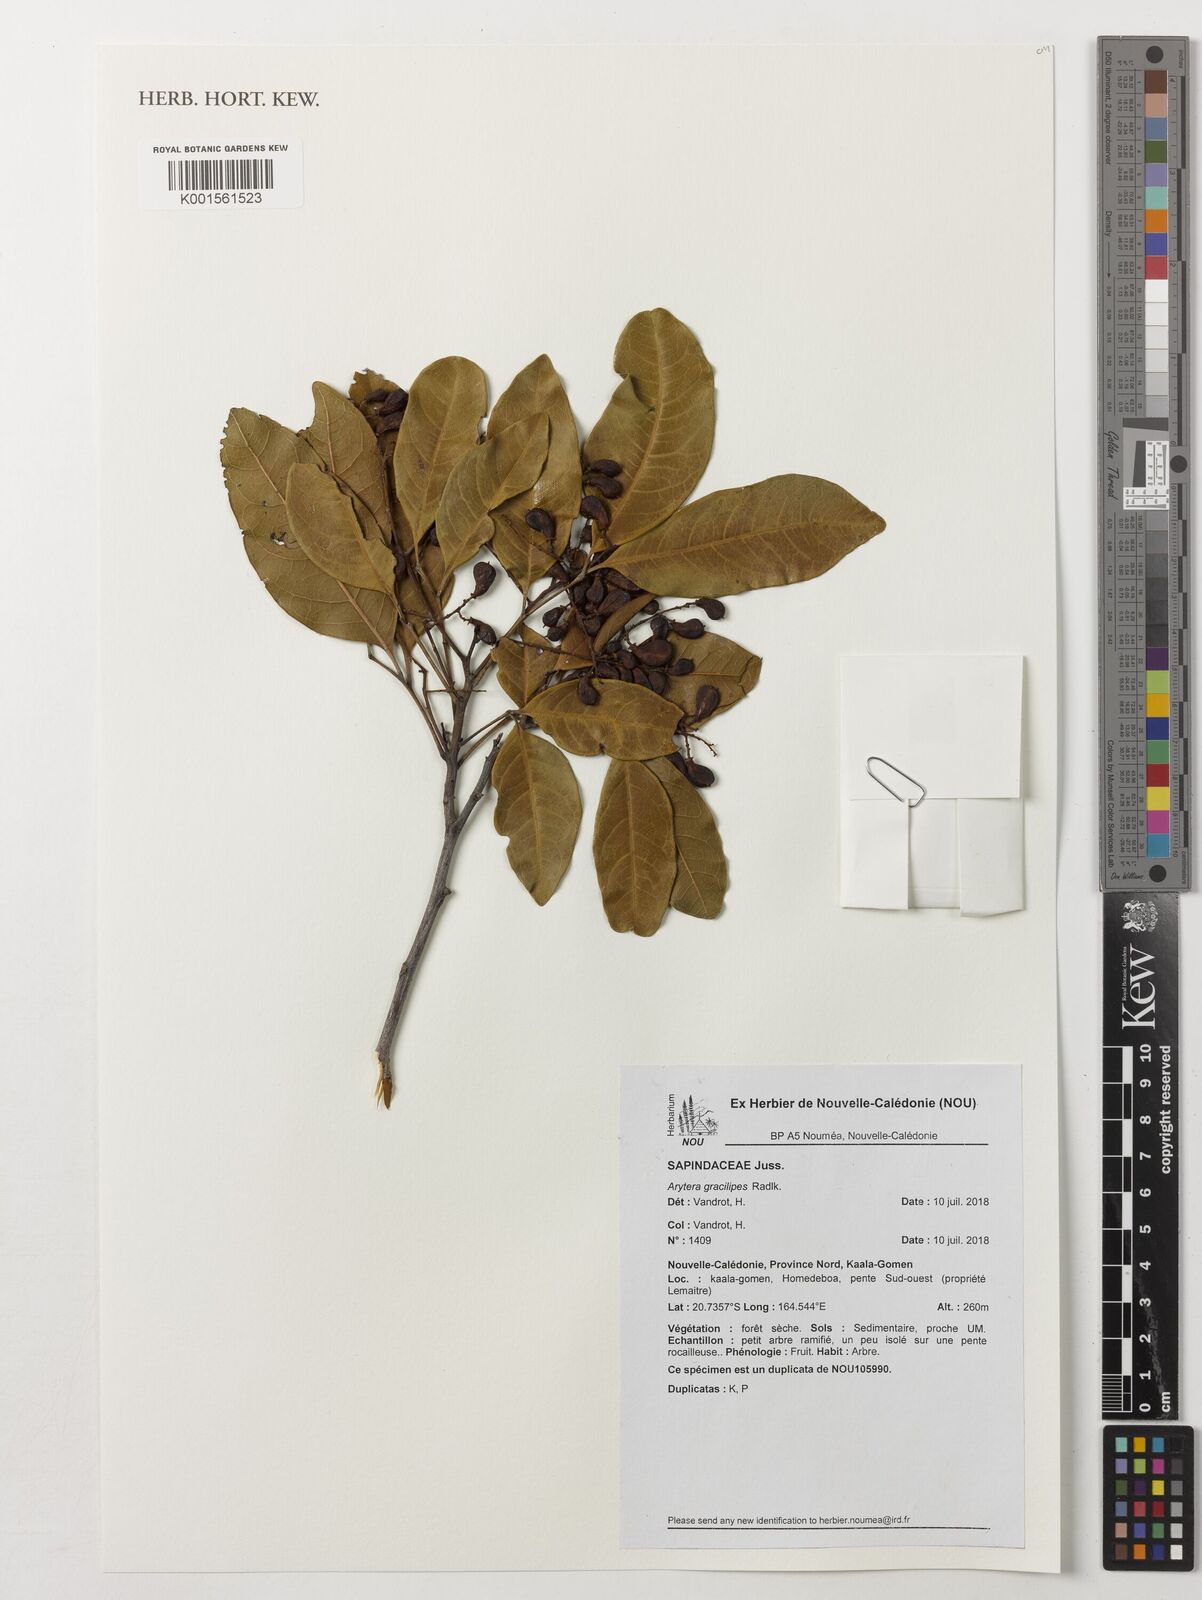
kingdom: Plantae
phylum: Tracheophyta
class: Magnoliopsida
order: Sapindales
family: Sapindaceae
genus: Lepidocupania
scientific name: Lepidocupania gracilipes
